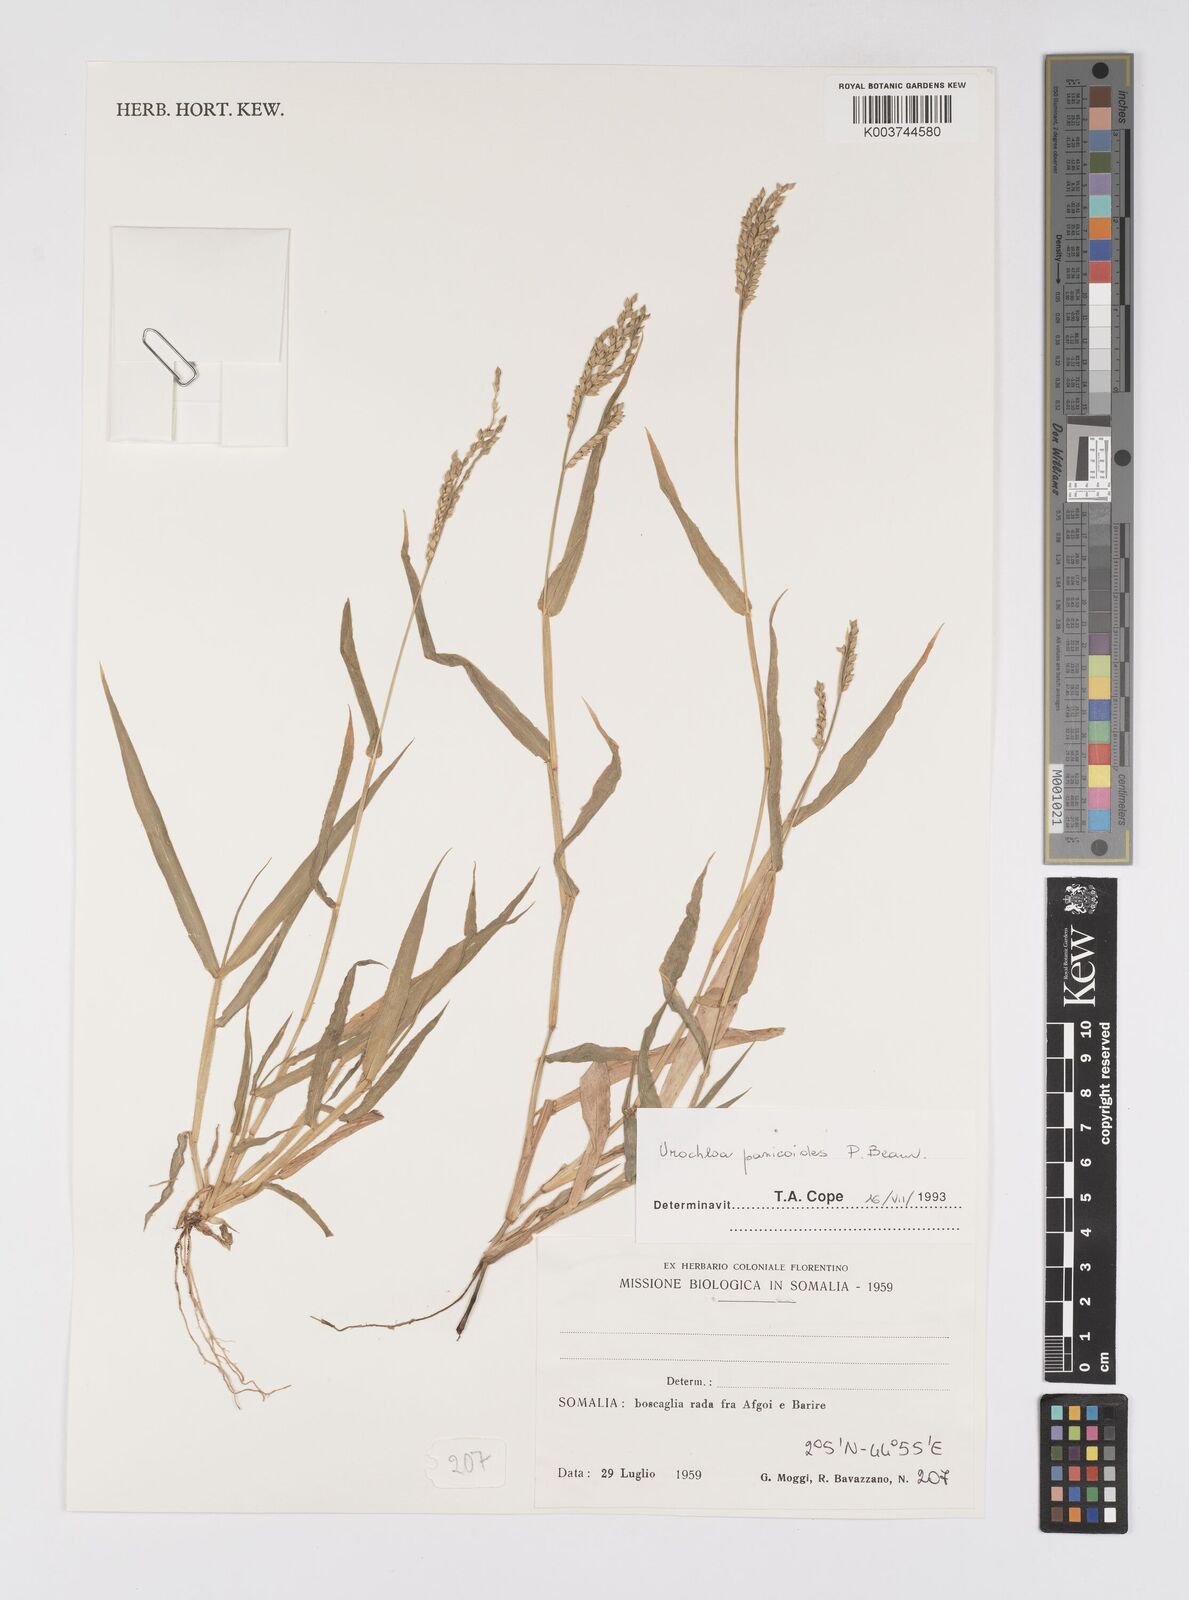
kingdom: Plantae
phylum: Tracheophyta
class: Liliopsida
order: Poales
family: Poaceae
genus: Urochloa
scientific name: Urochloa panicoides
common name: Sharp-flowered signal-grass
